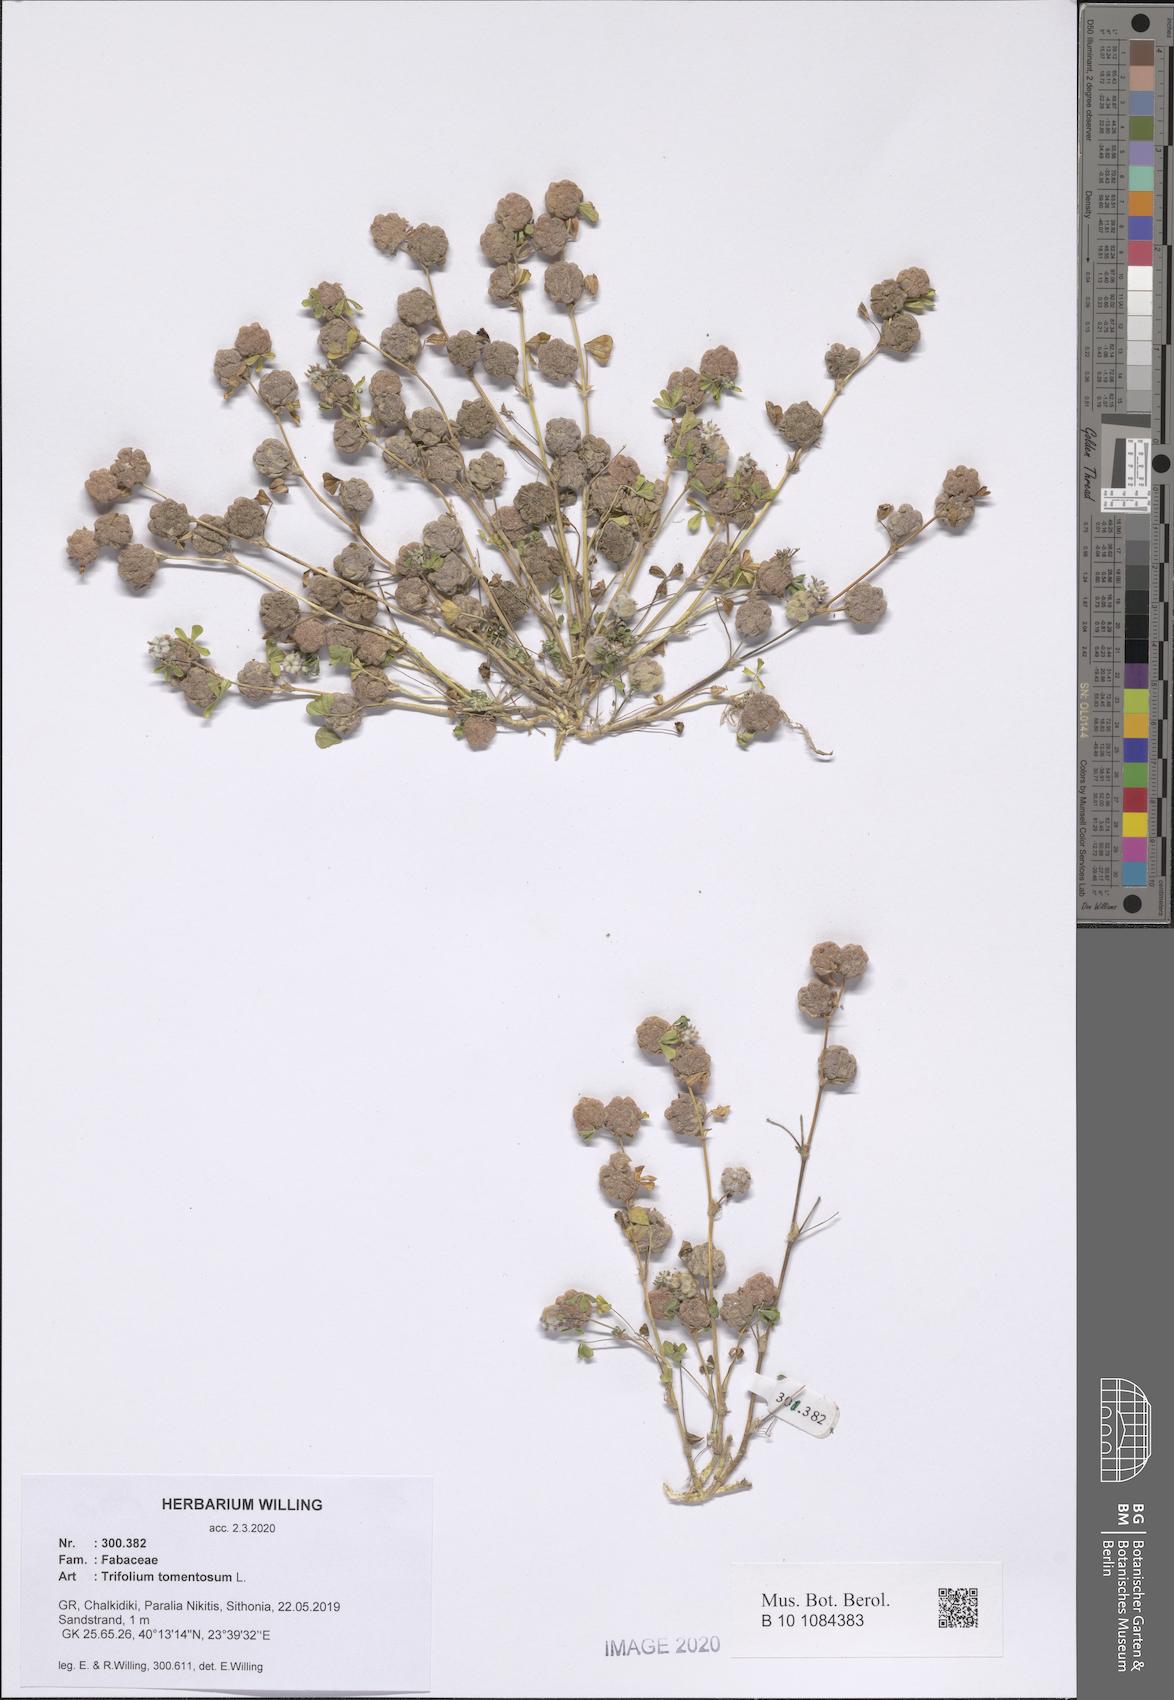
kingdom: Plantae
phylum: Tracheophyta
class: Magnoliopsida
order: Fabales
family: Fabaceae
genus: Trifolium
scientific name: Trifolium tomentosum
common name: Woolly clover
